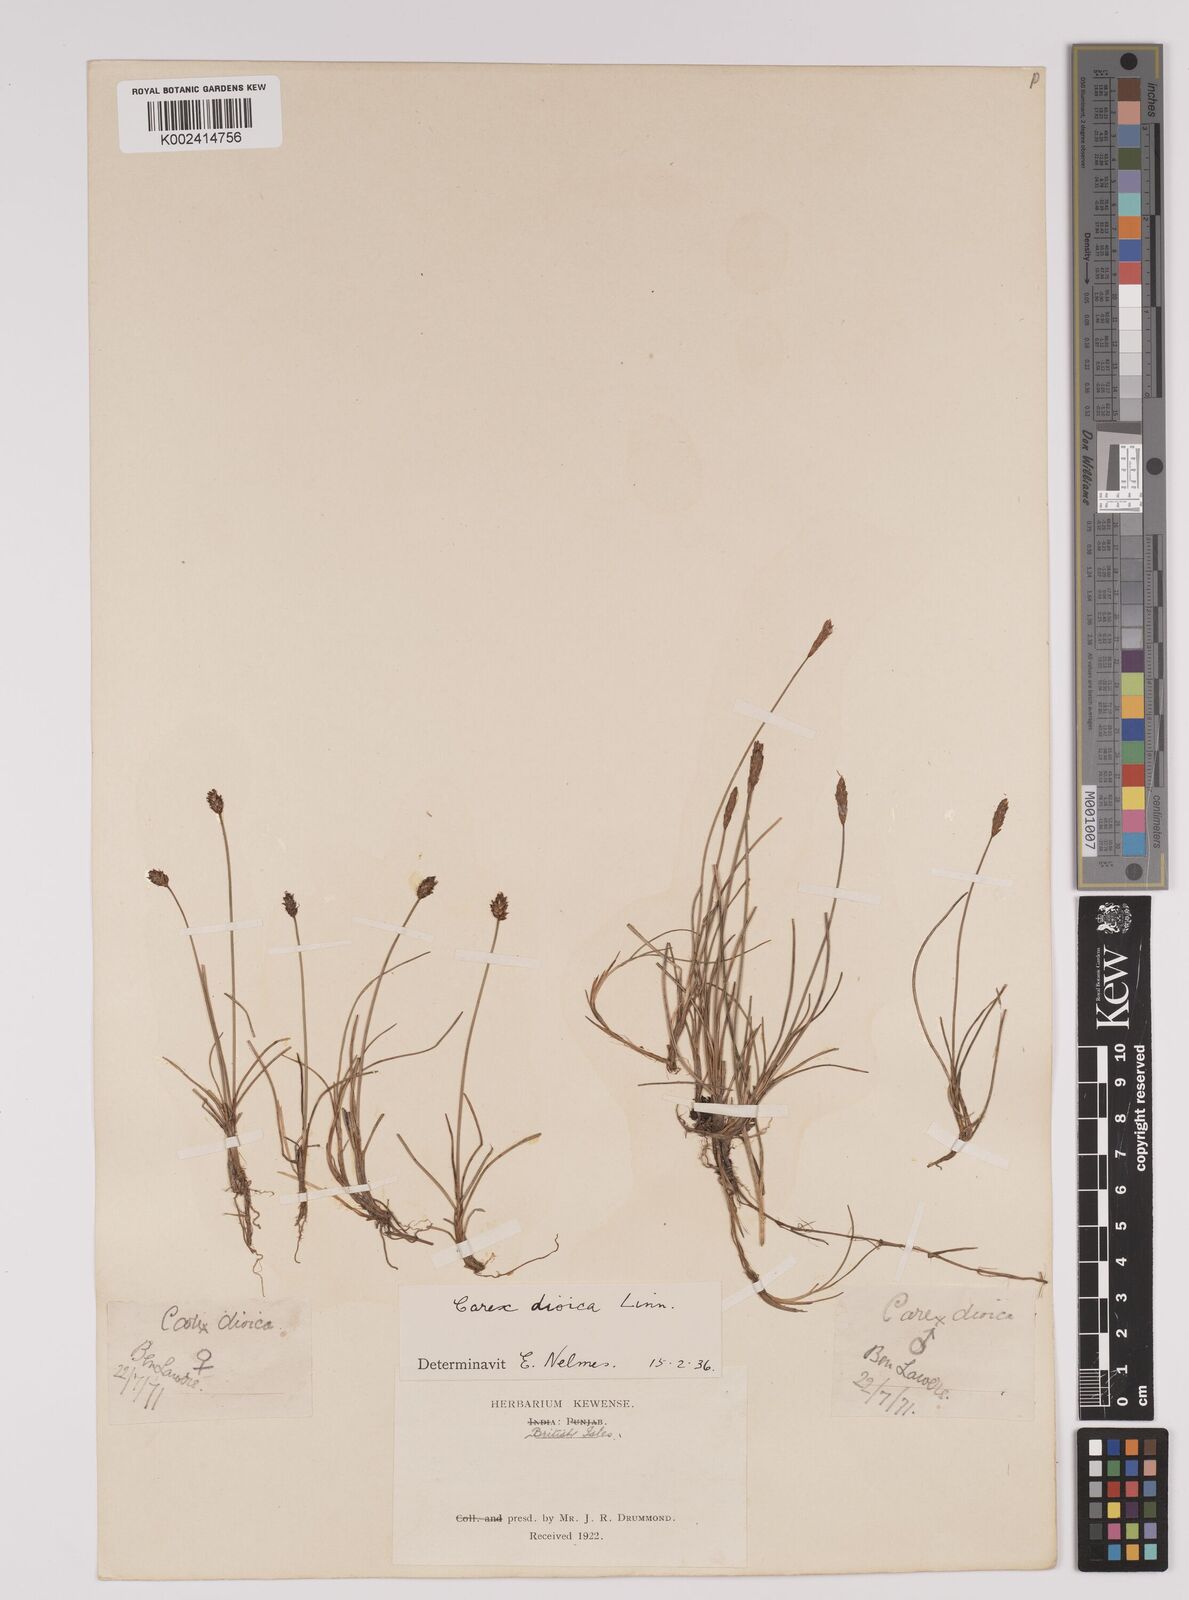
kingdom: Plantae
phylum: Tracheophyta
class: Liliopsida
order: Poales
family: Cyperaceae
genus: Carex
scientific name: Carex dioica
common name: Dioecious sedge
